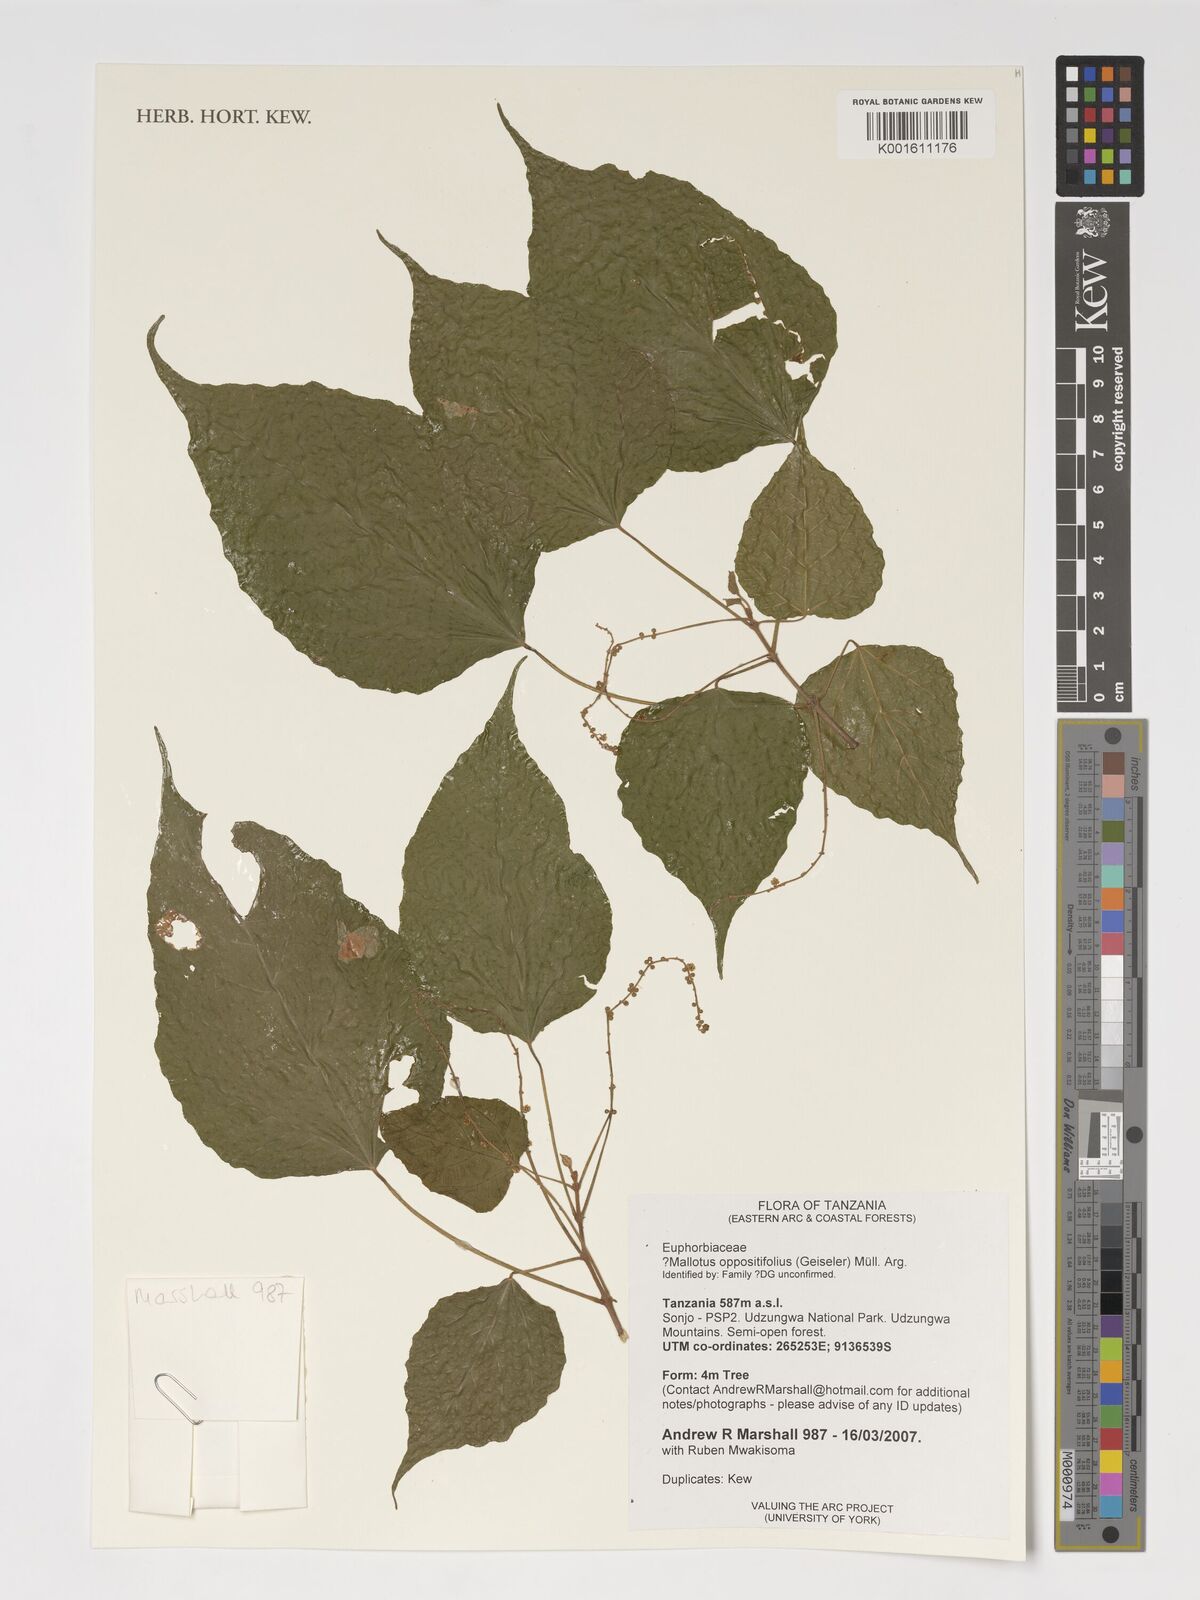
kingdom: Plantae
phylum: Tracheophyta
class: Magnoliopsida
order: Malpighiales
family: Euphorbiaceae
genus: Mallotus
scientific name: Mallotus oppositifolius
